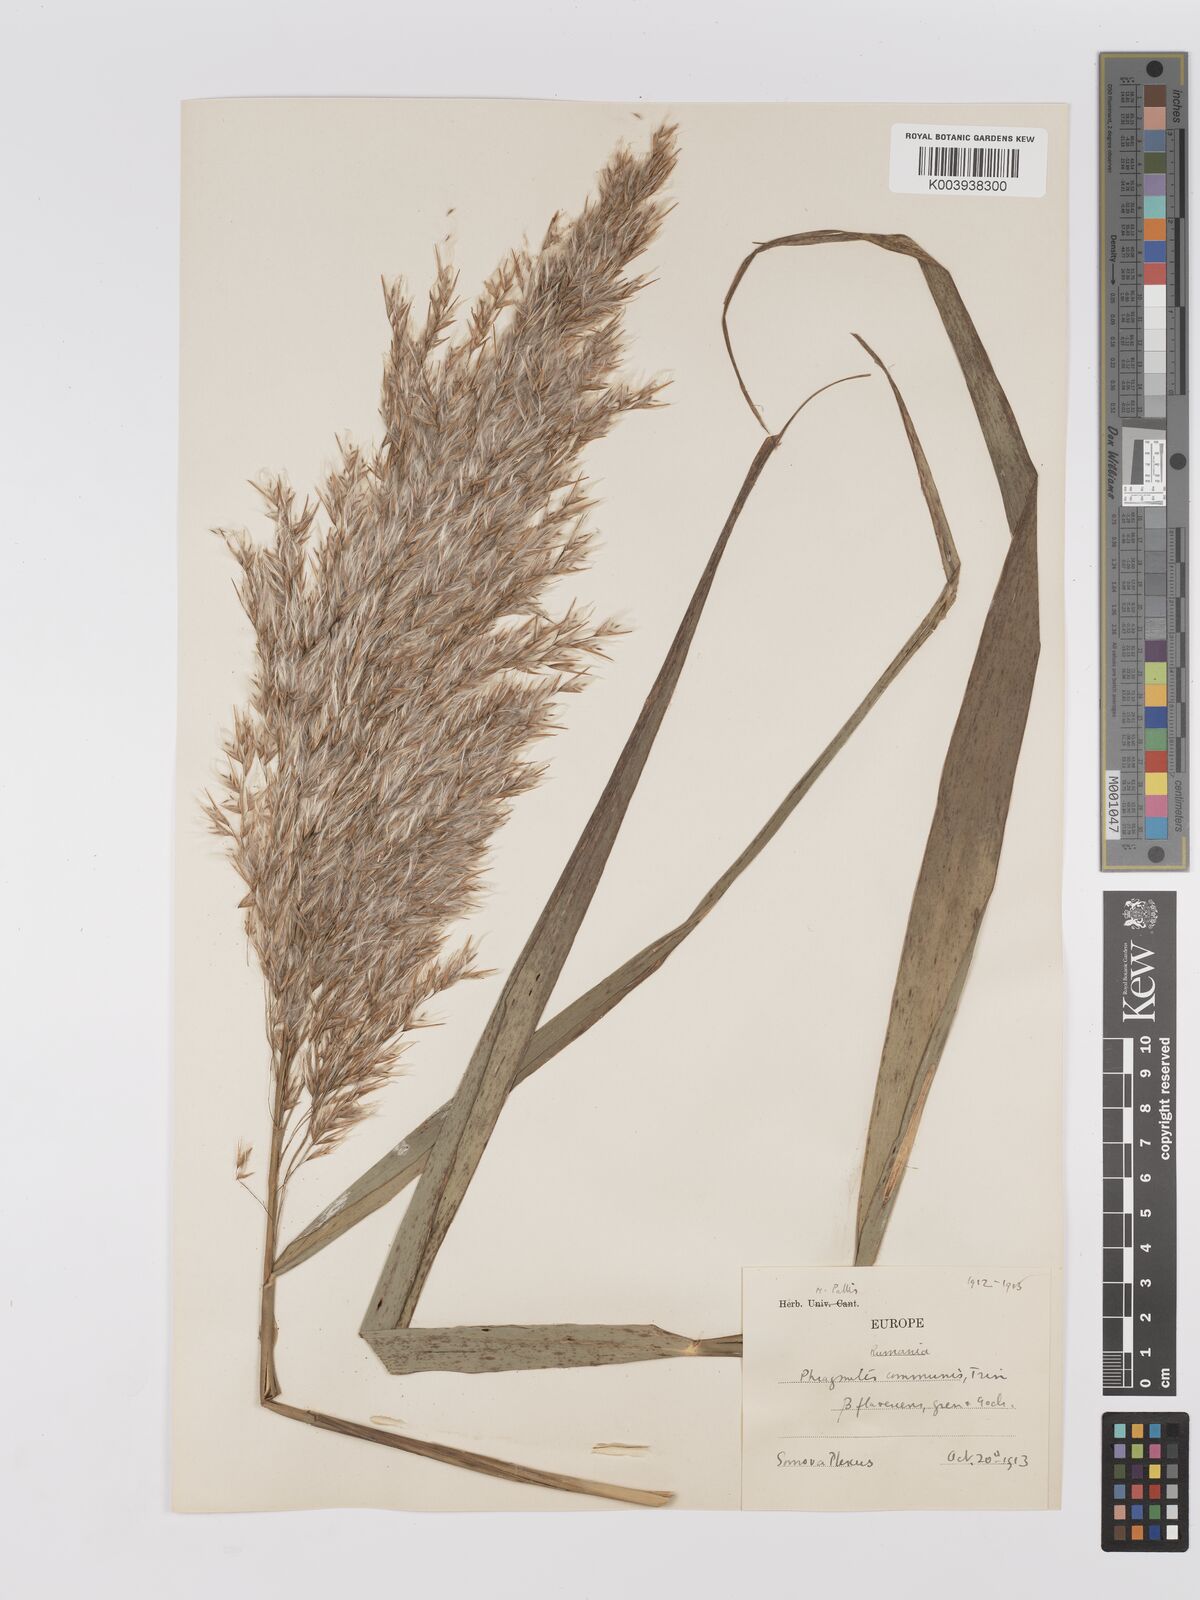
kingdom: Plantae
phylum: Tracheophyta
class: Liliopsida
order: Poales
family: Poaceae
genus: Phragmites
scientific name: Phragmites australis
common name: Common reed
